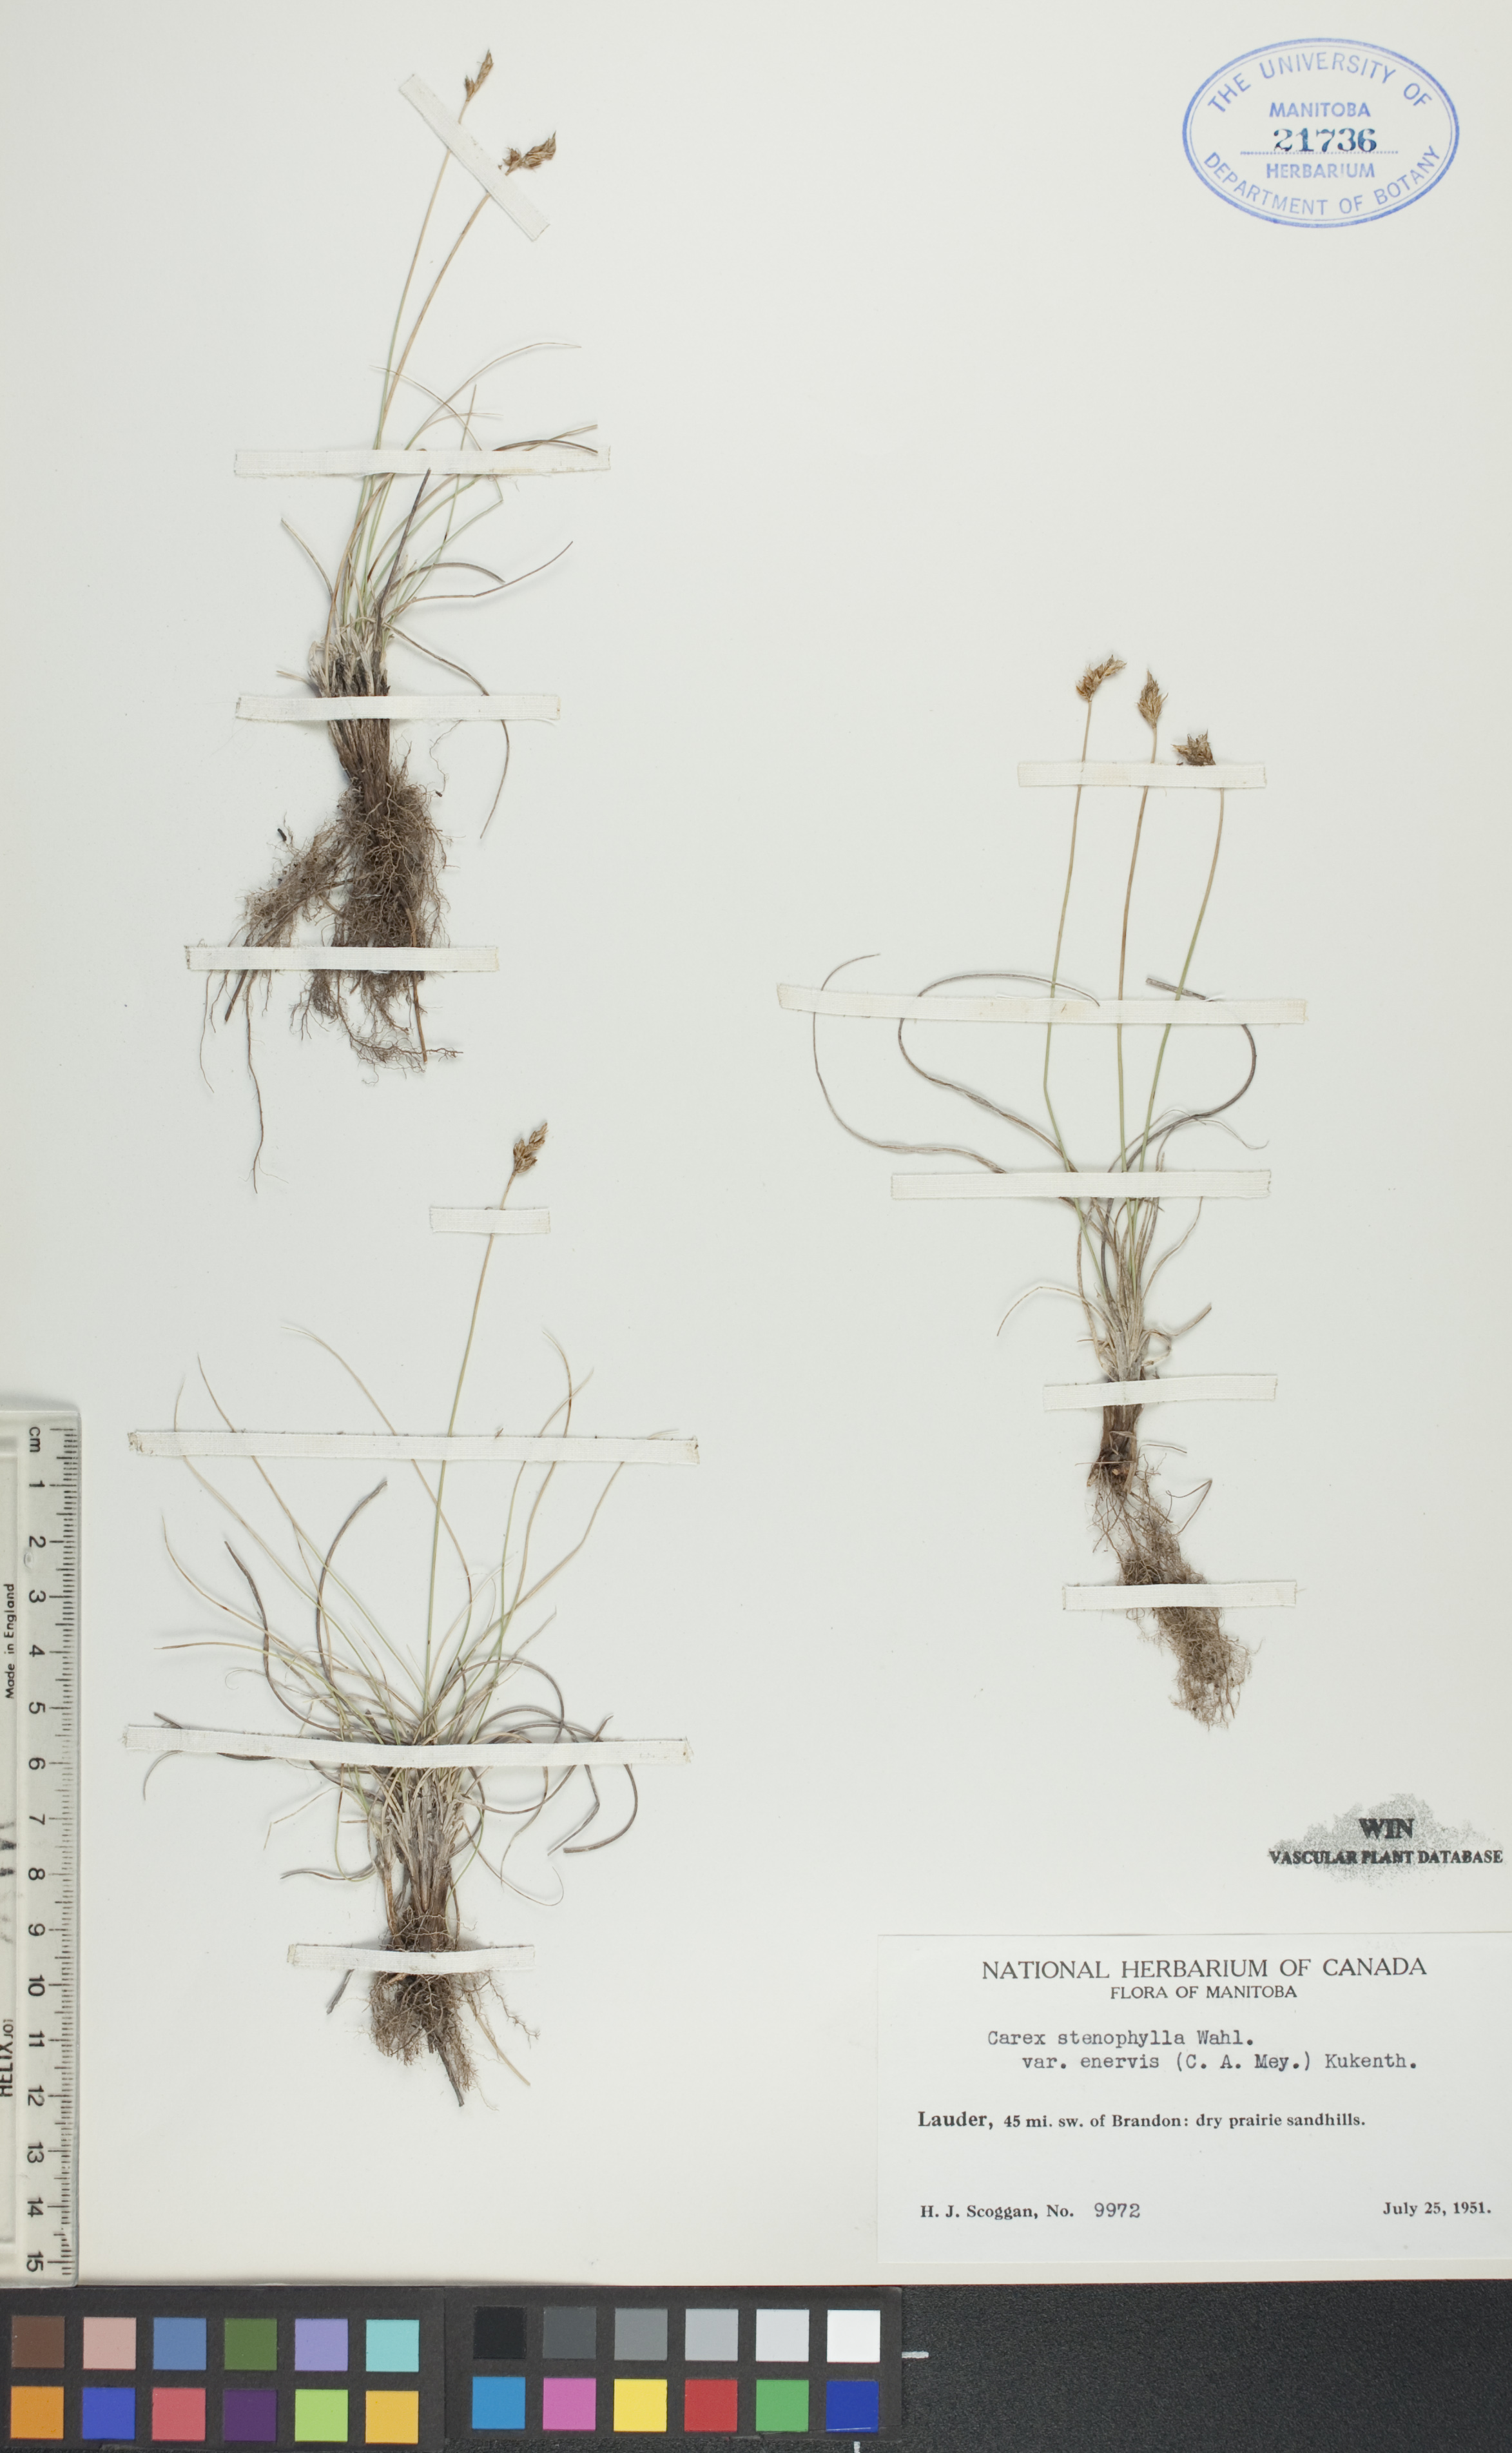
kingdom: Plantae
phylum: Tracheophyta
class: Liliopsida
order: Poales
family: Cyperaceae
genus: Carex
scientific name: Carex enervis
